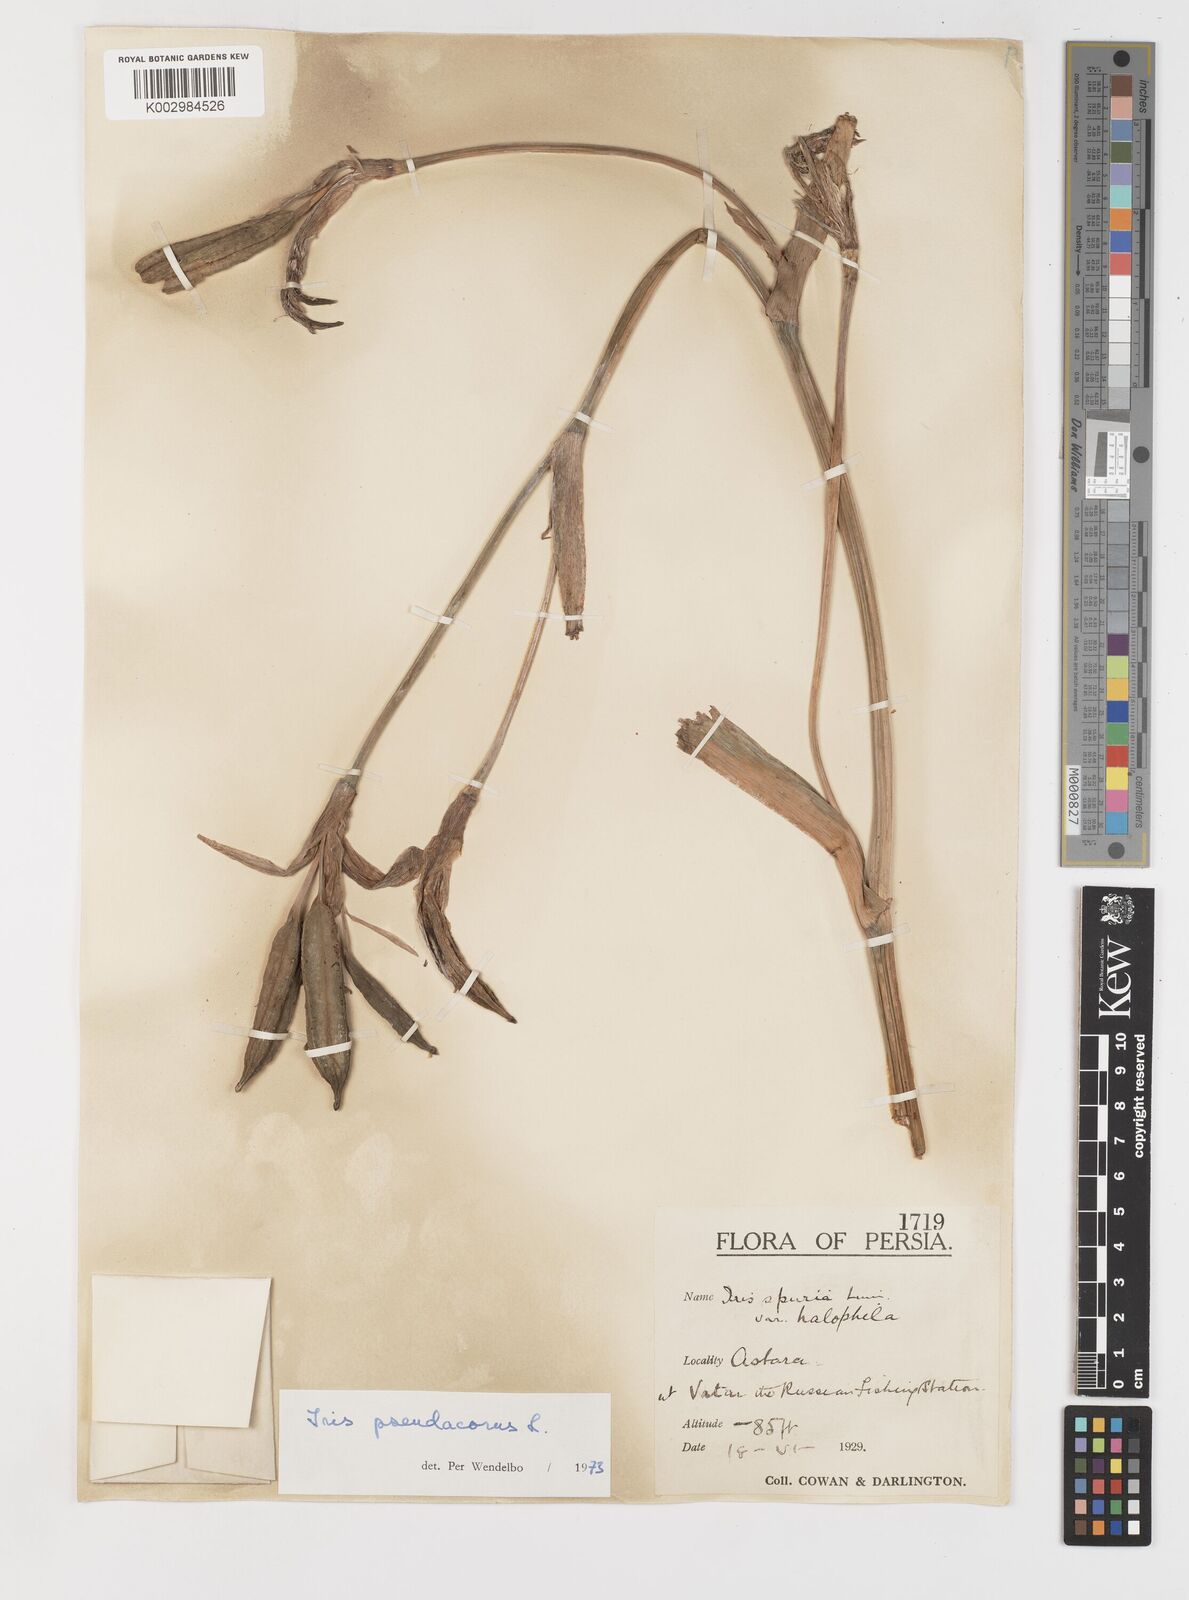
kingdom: Plantae
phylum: Tracheophyta
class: Liliopsida
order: Asparagales
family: Iridaceae
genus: Iris
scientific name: Iris pseudacorus
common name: Yellow flag
